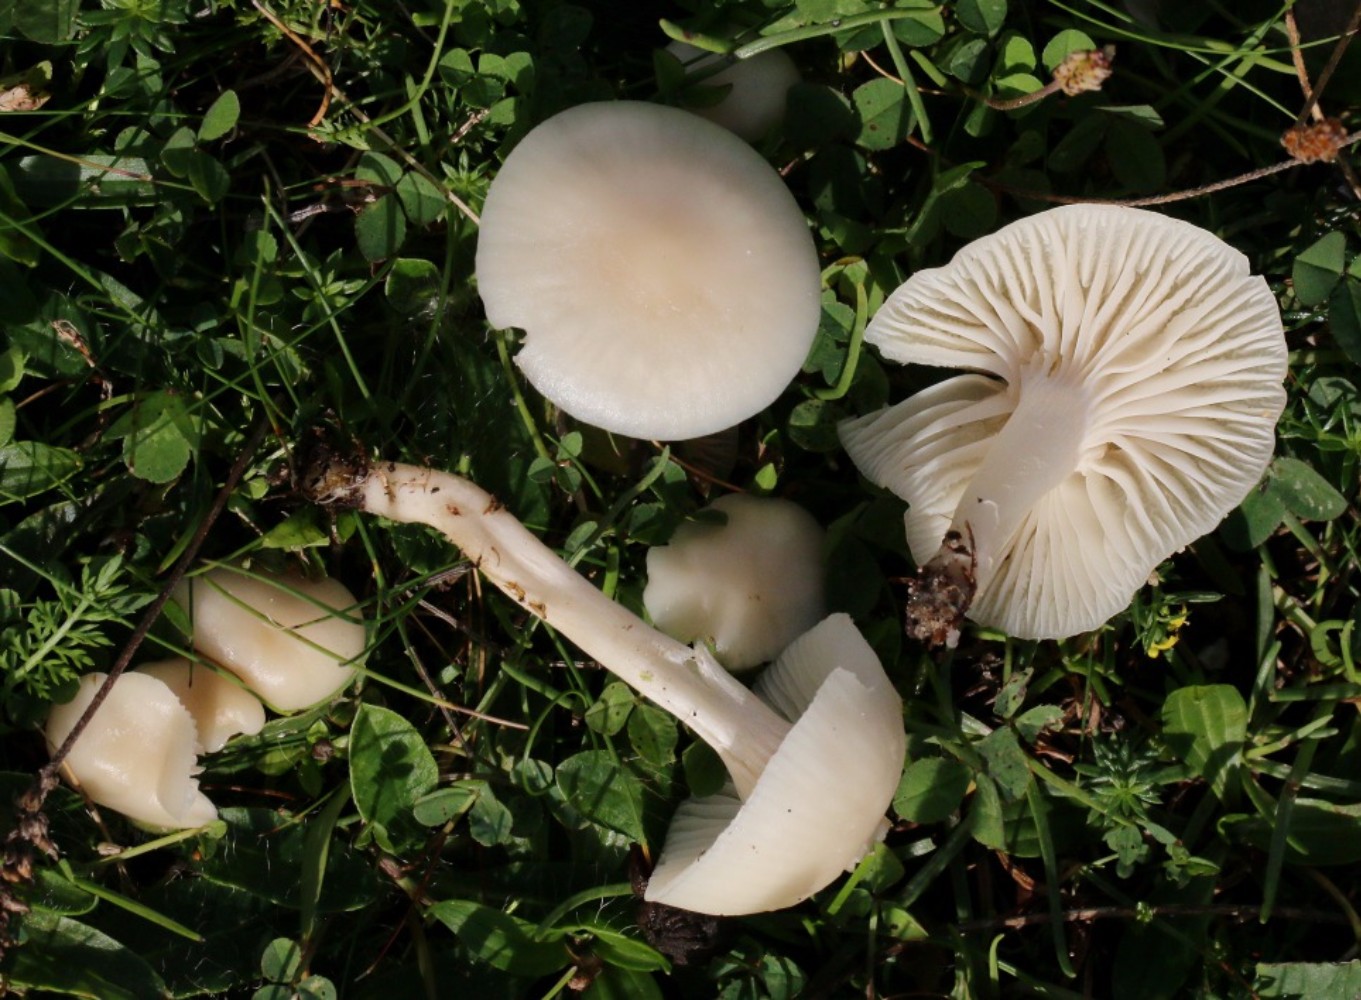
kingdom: Fungi
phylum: Basidiomycota
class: Agaricomycetes
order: Agaricales
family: Hygrophoraceae
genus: Cuphophyllus
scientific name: Cuphophyllus virgineus
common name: snehvid vokshat
